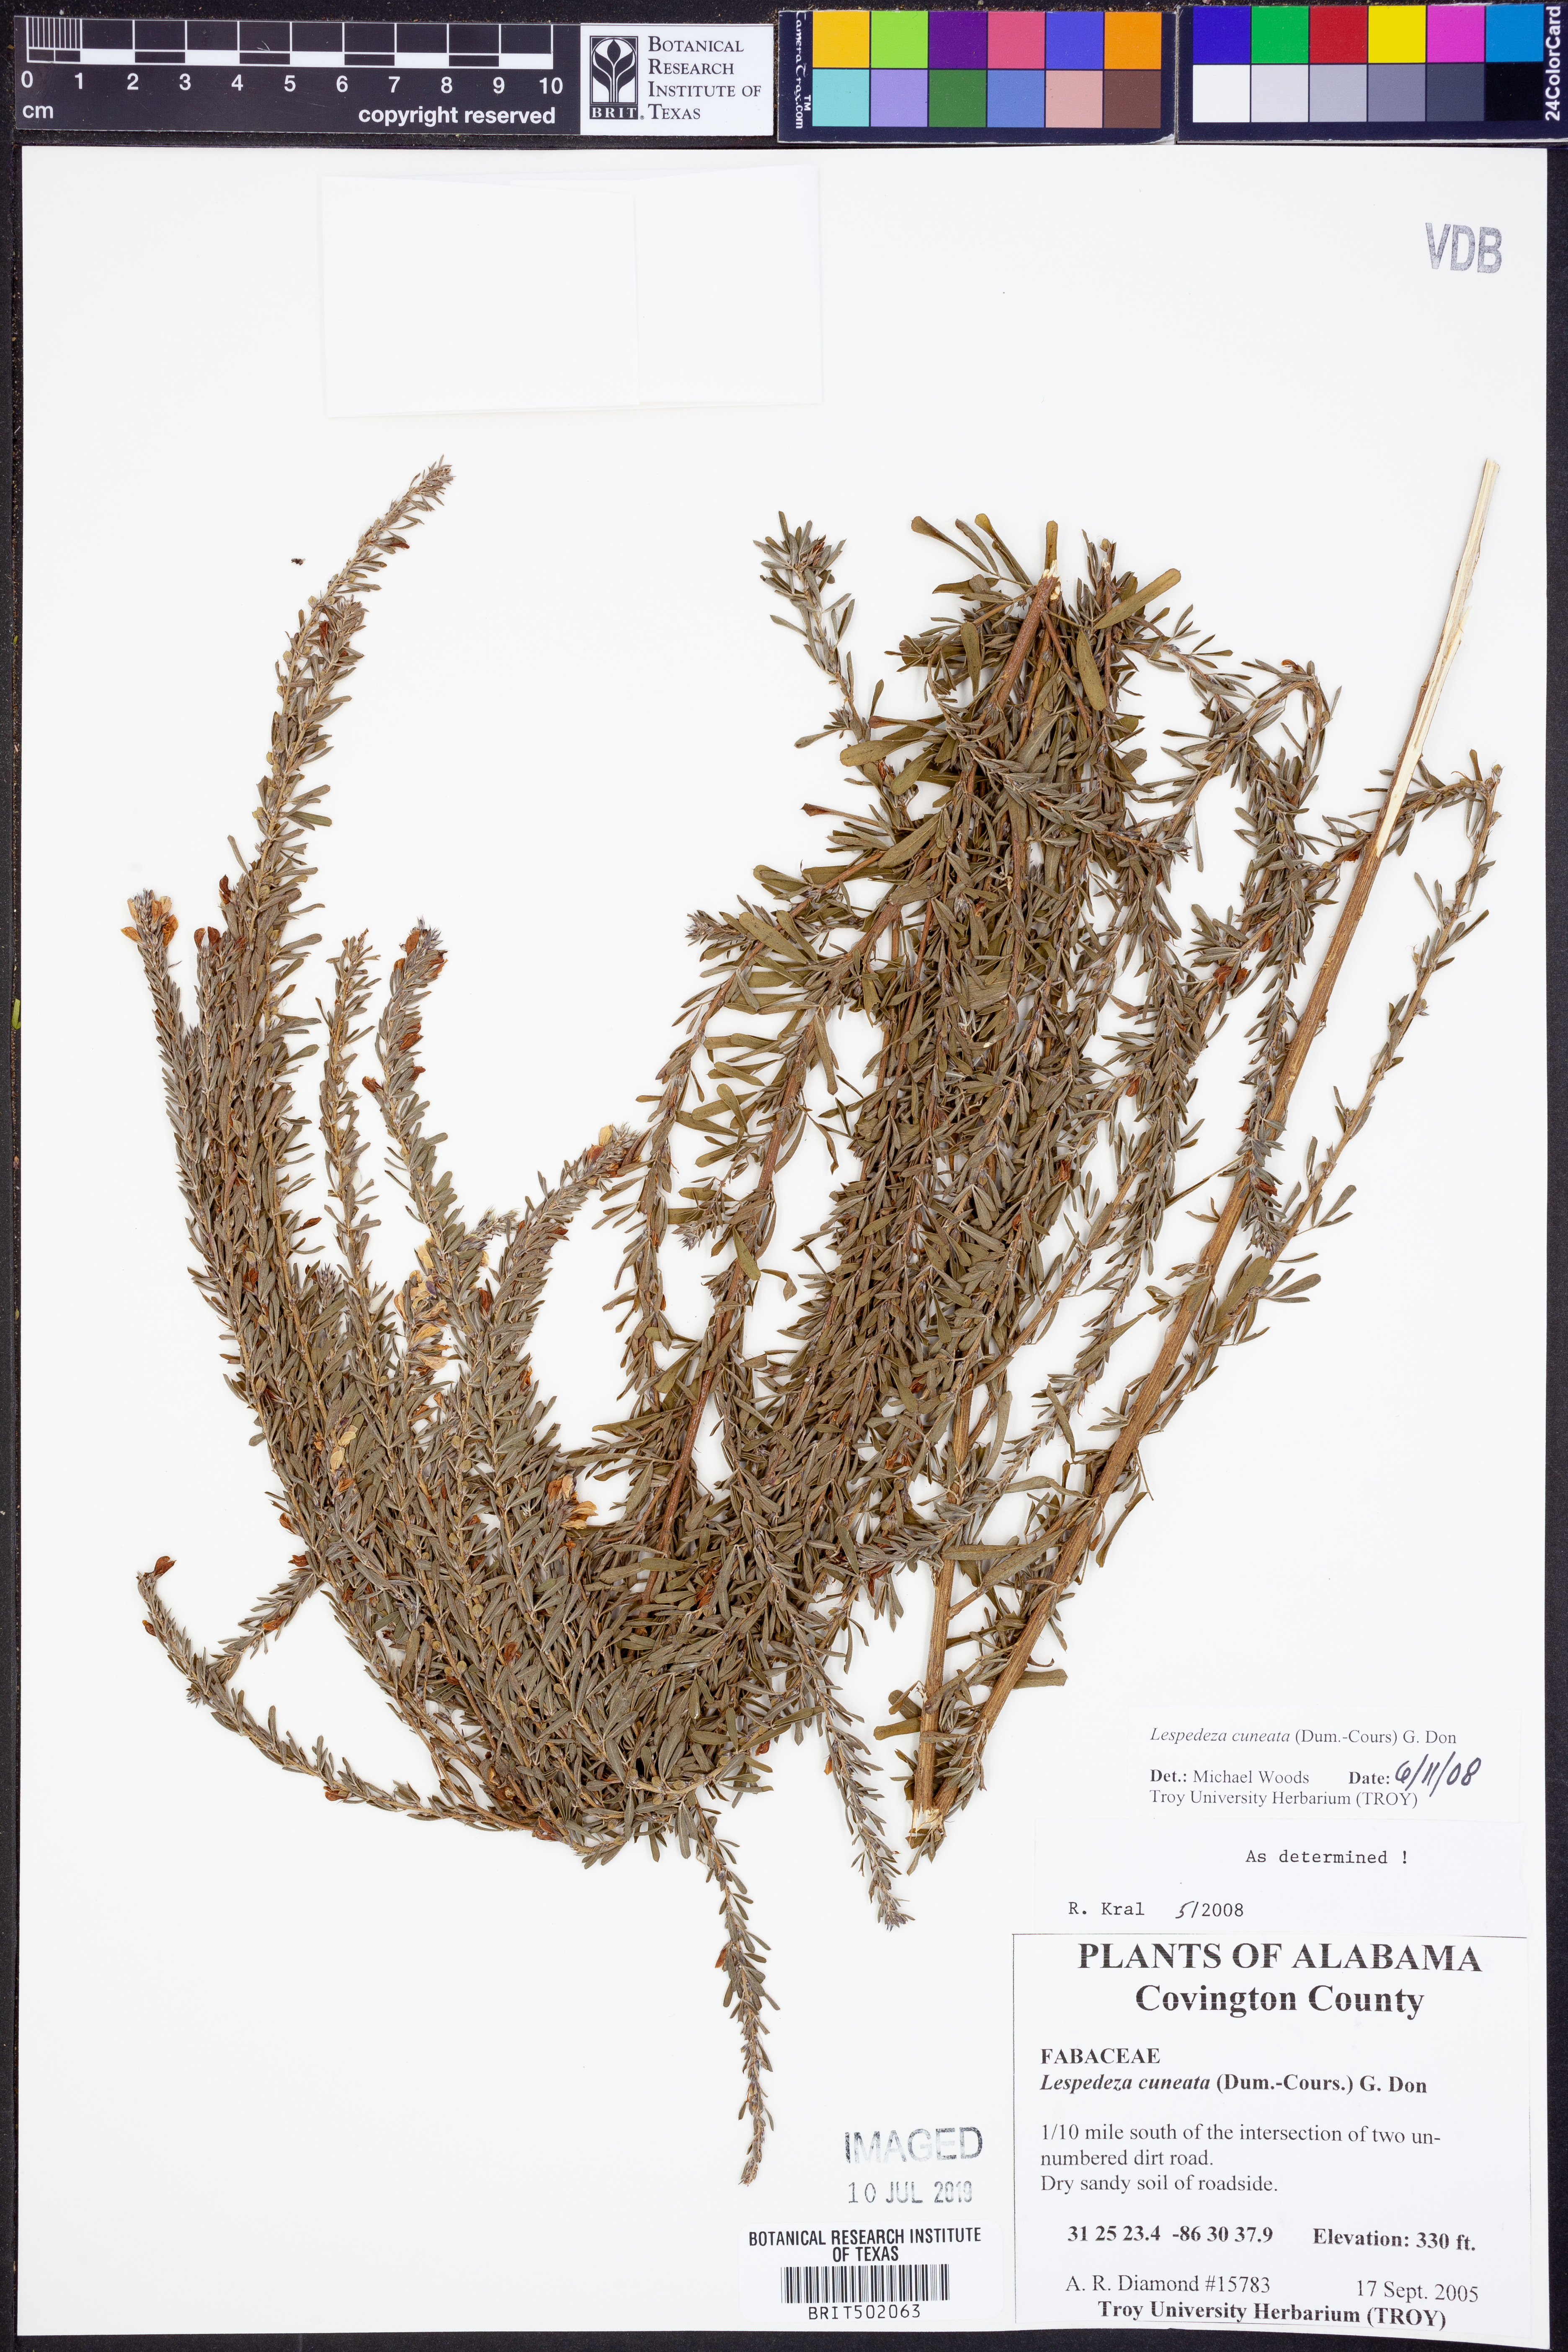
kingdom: Plantae
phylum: Tracheophyta
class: Magnoliopsida
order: Fabales
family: Fabaceae
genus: Lespedeza
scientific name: Lespedeza cuneata
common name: Chinese bush-clover
